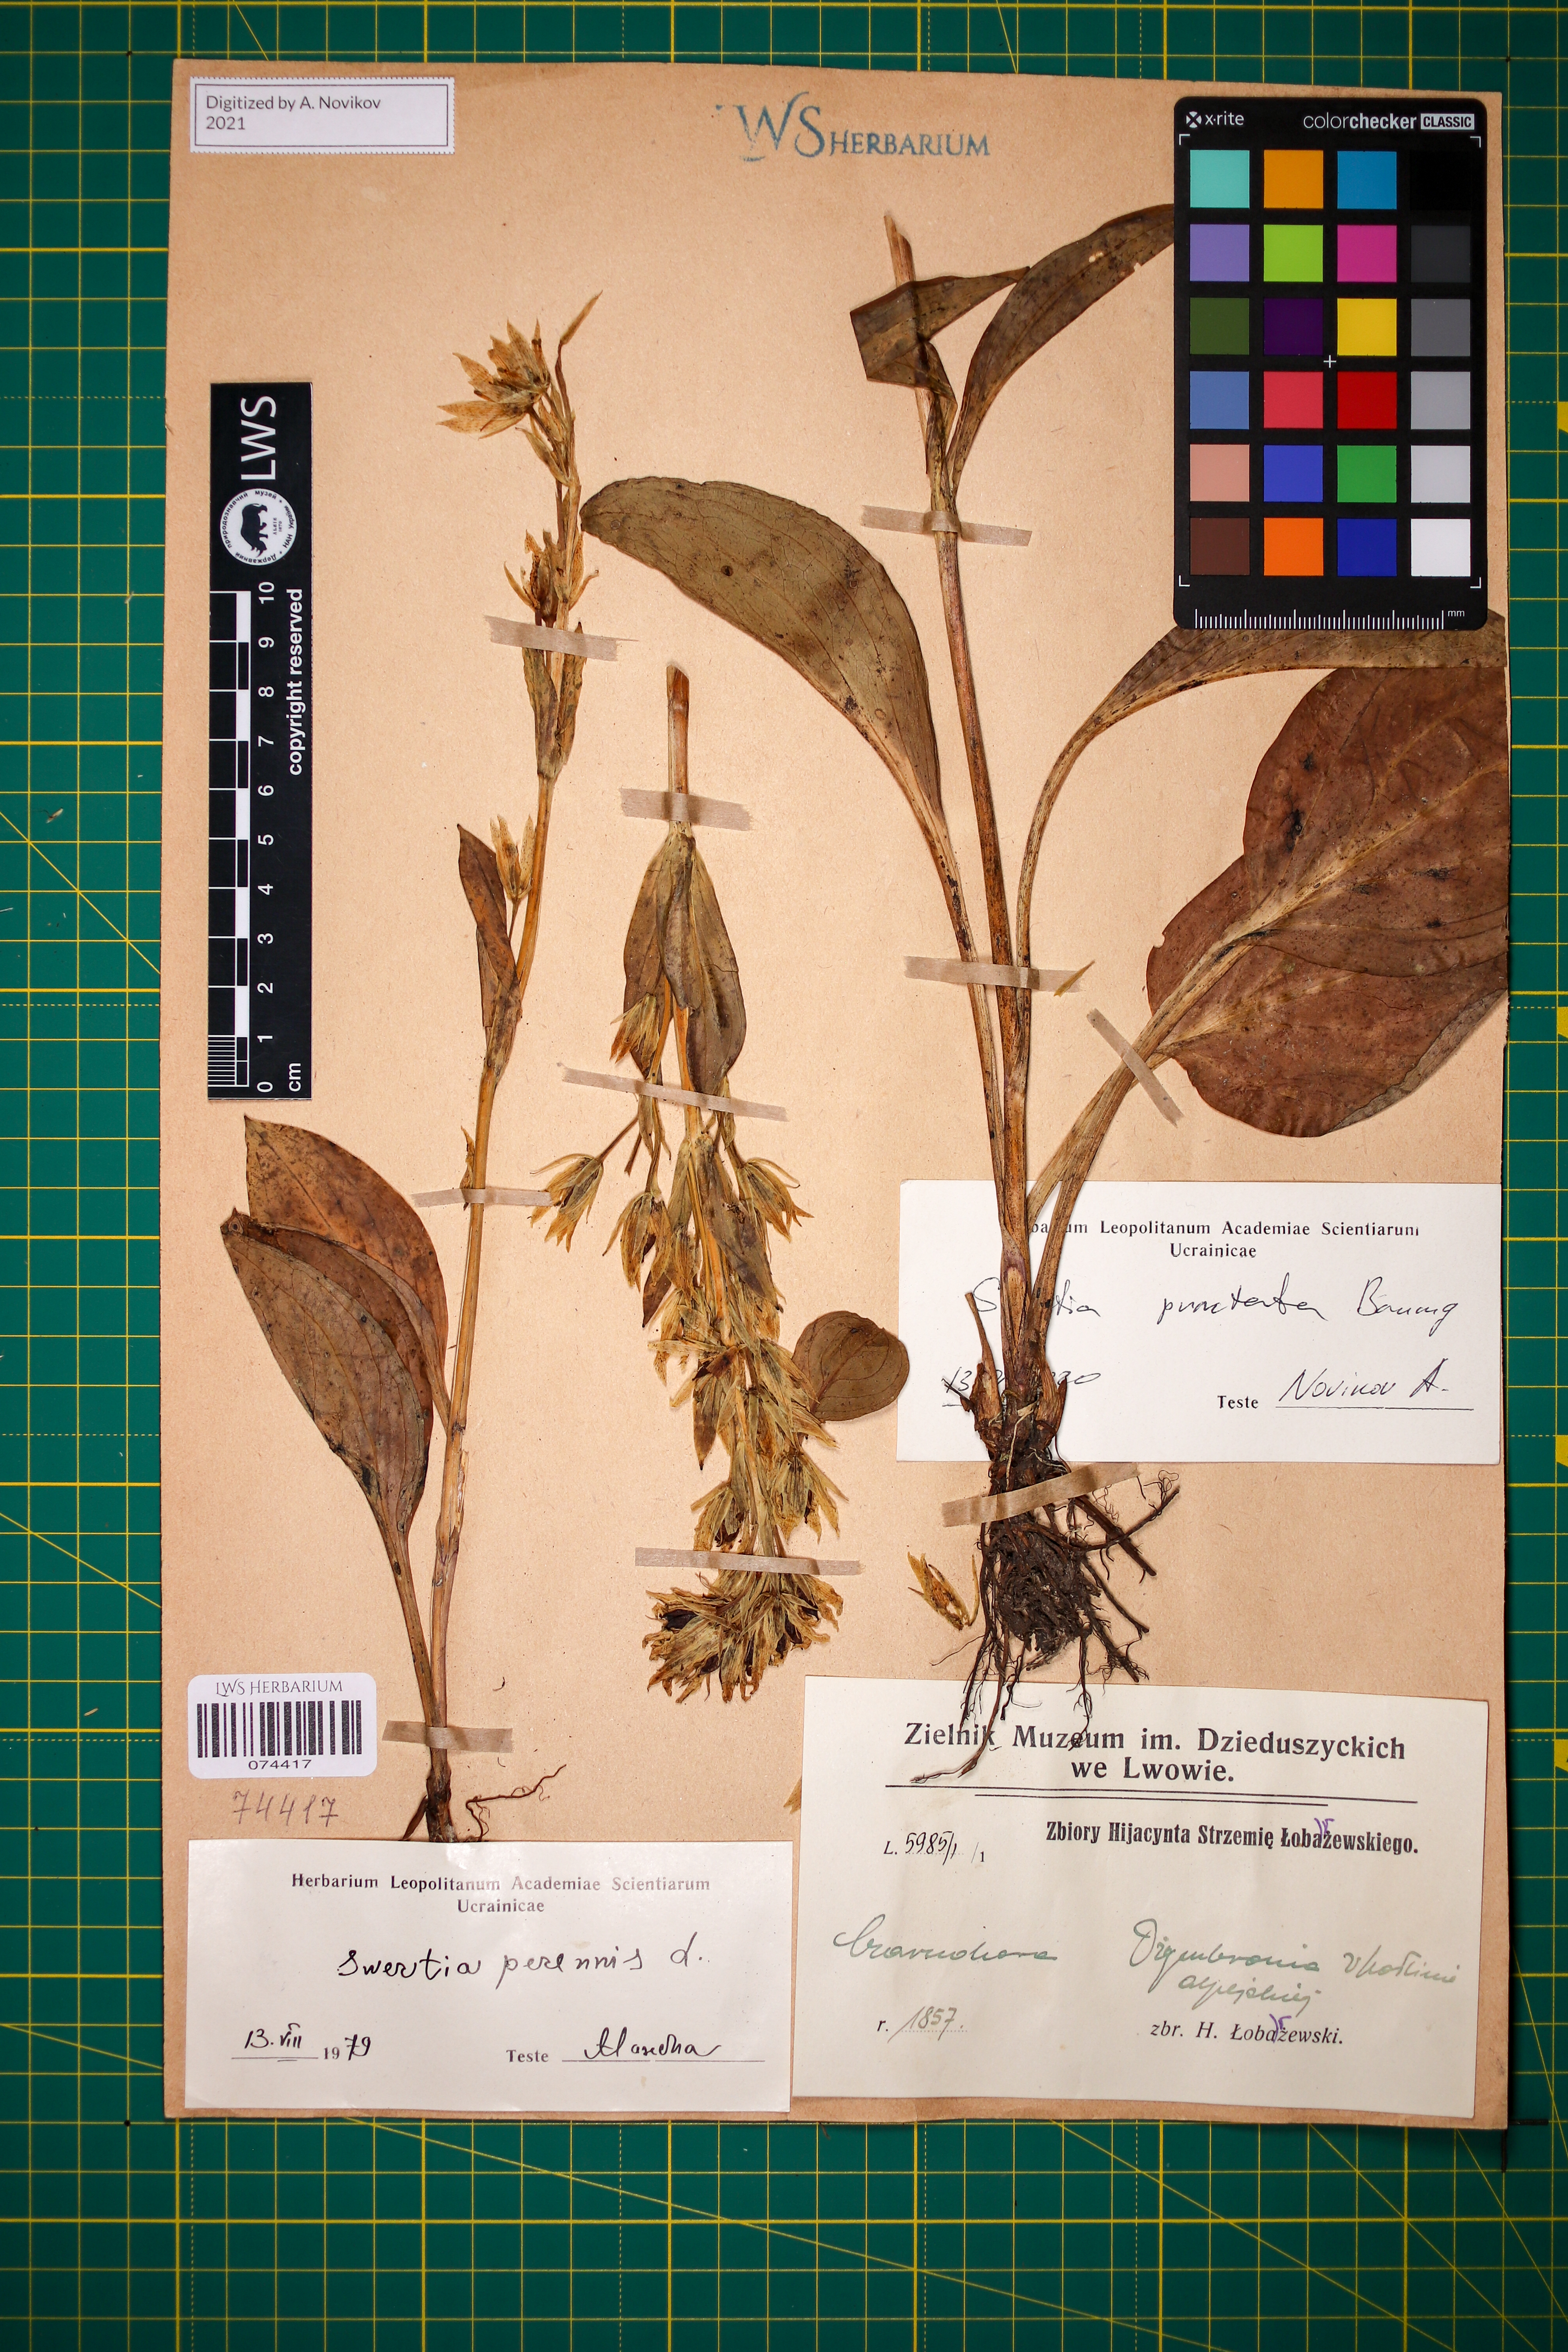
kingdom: Plantae
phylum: Tracheophyta
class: Magnoliopsida
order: Gentianales
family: Gentianaceae
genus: Swertia
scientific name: Swertia perennis
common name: Alpine bog swertia
